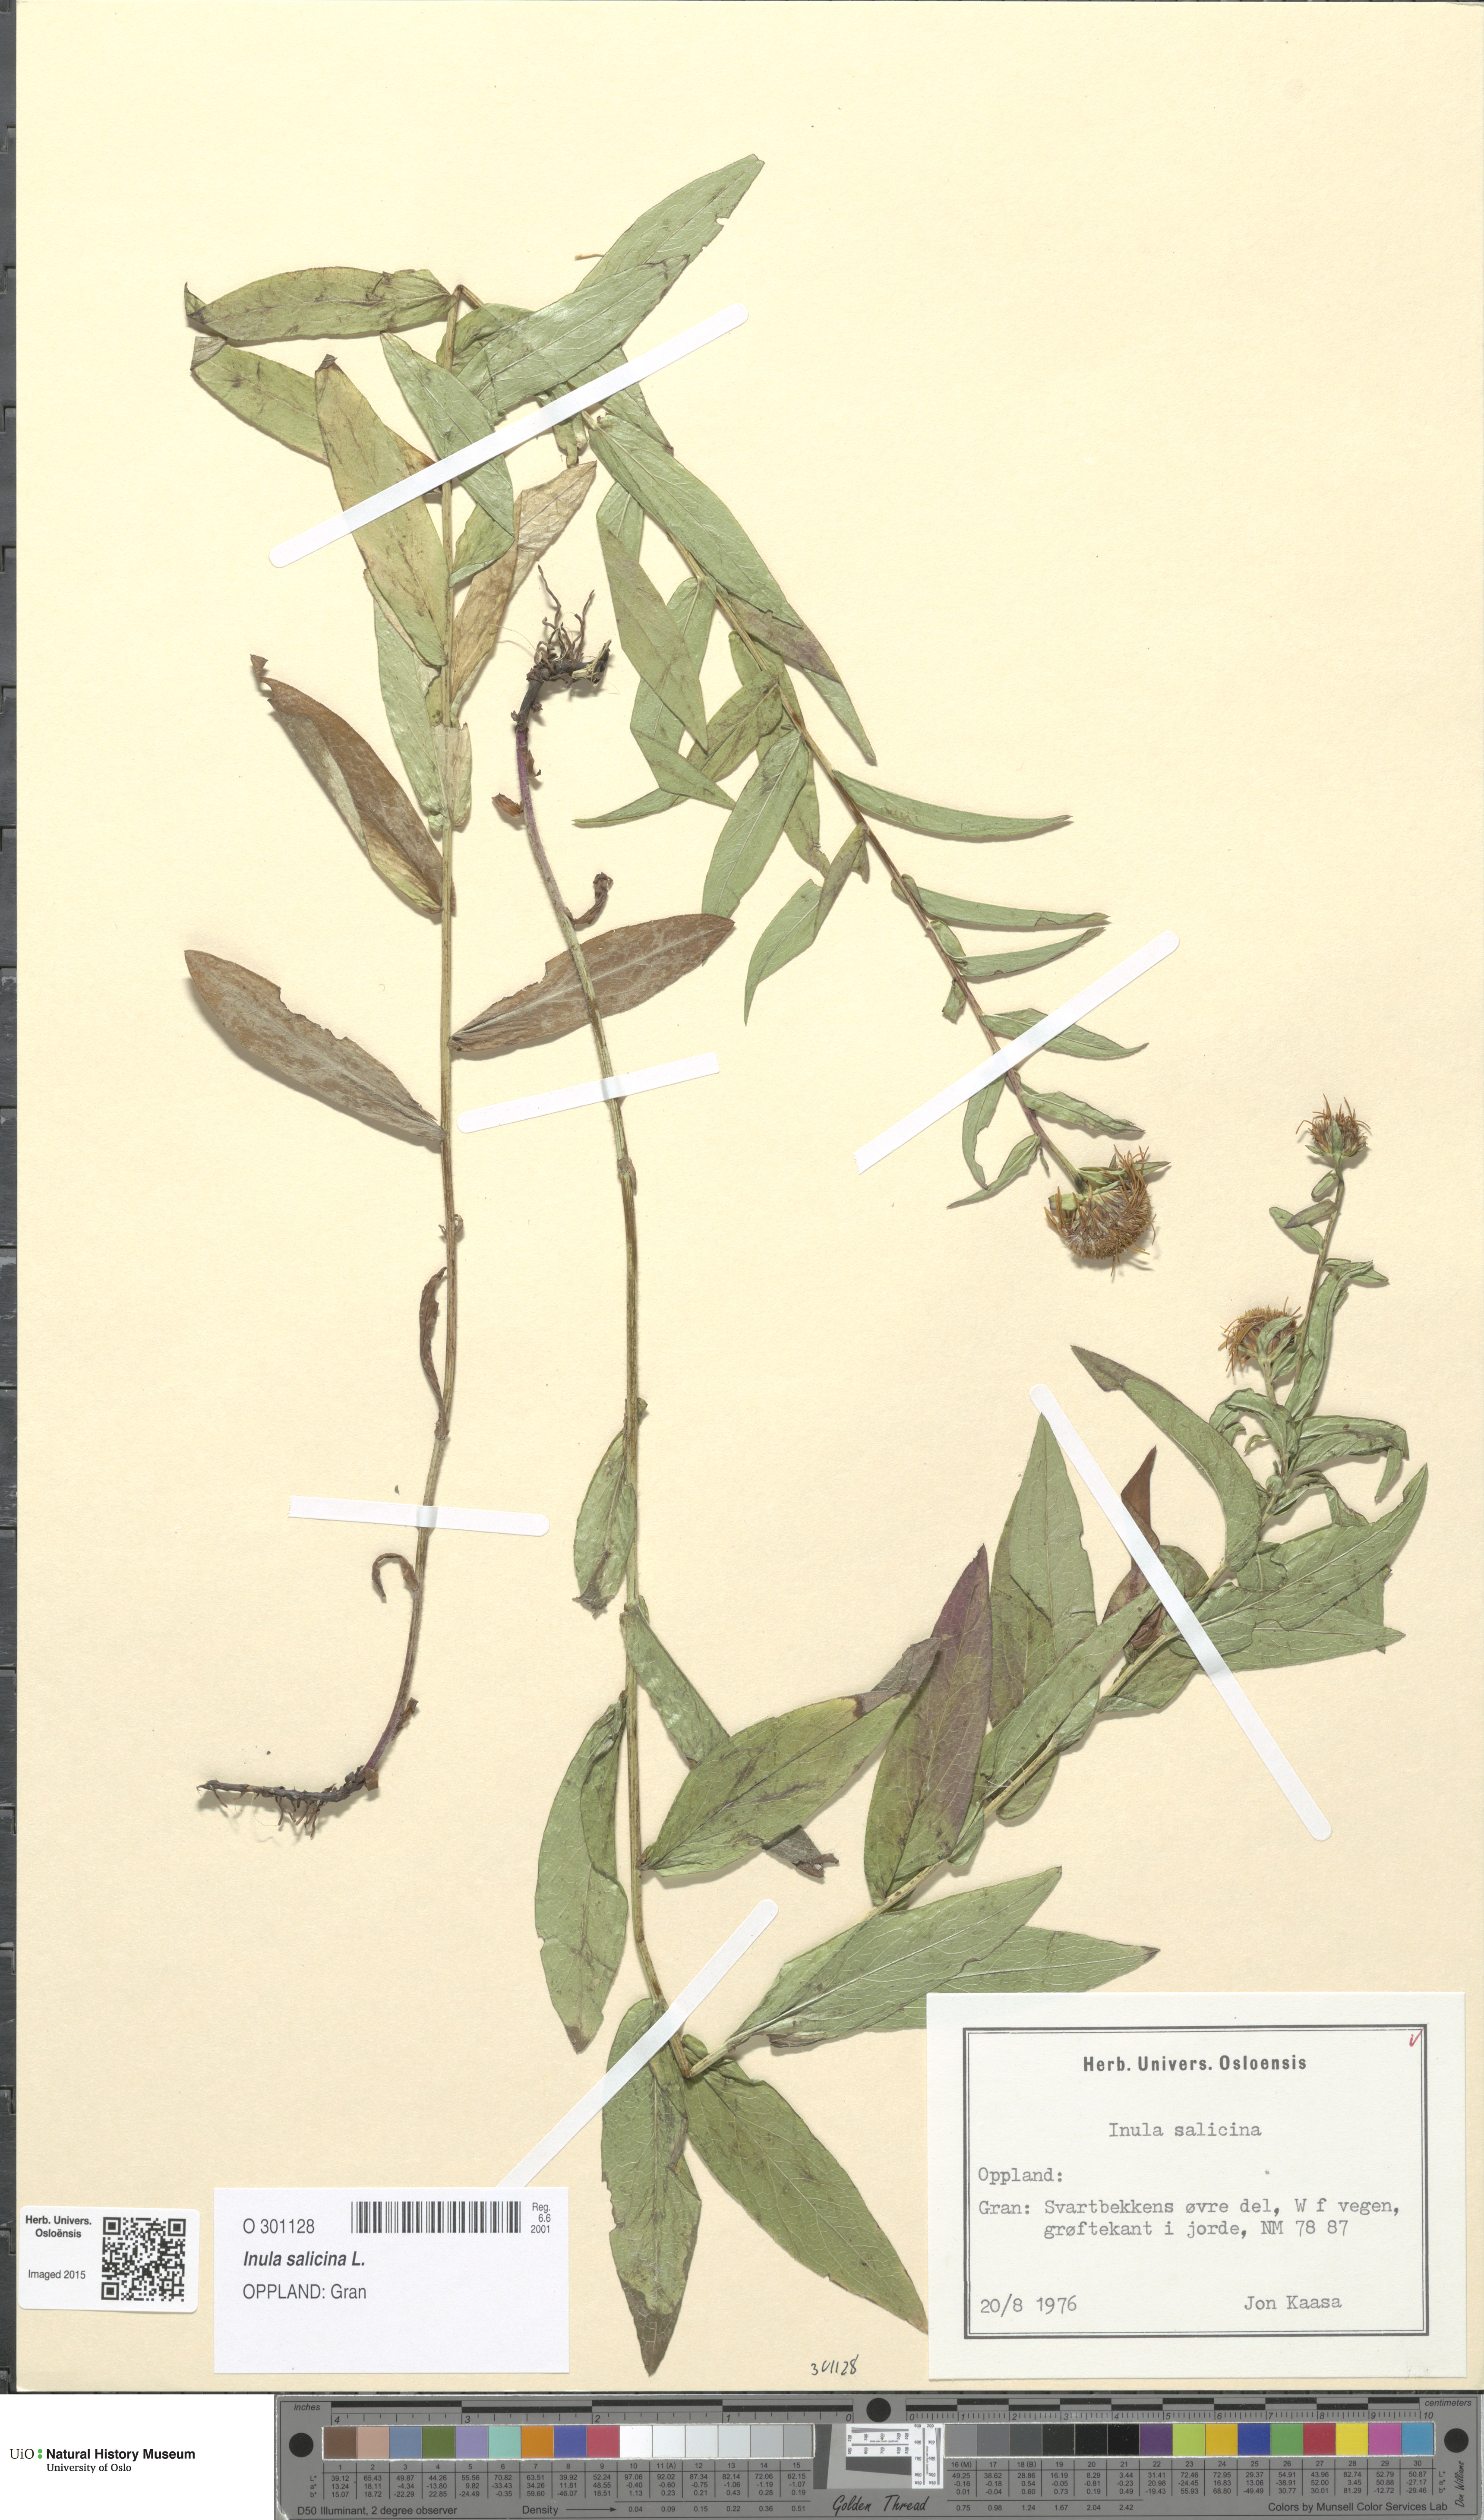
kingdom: Plantae
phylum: Tracheophyta
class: Magnoliopsida
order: Asterales
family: Asteraceae
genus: Pentanema
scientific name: Pentanema salicinum
